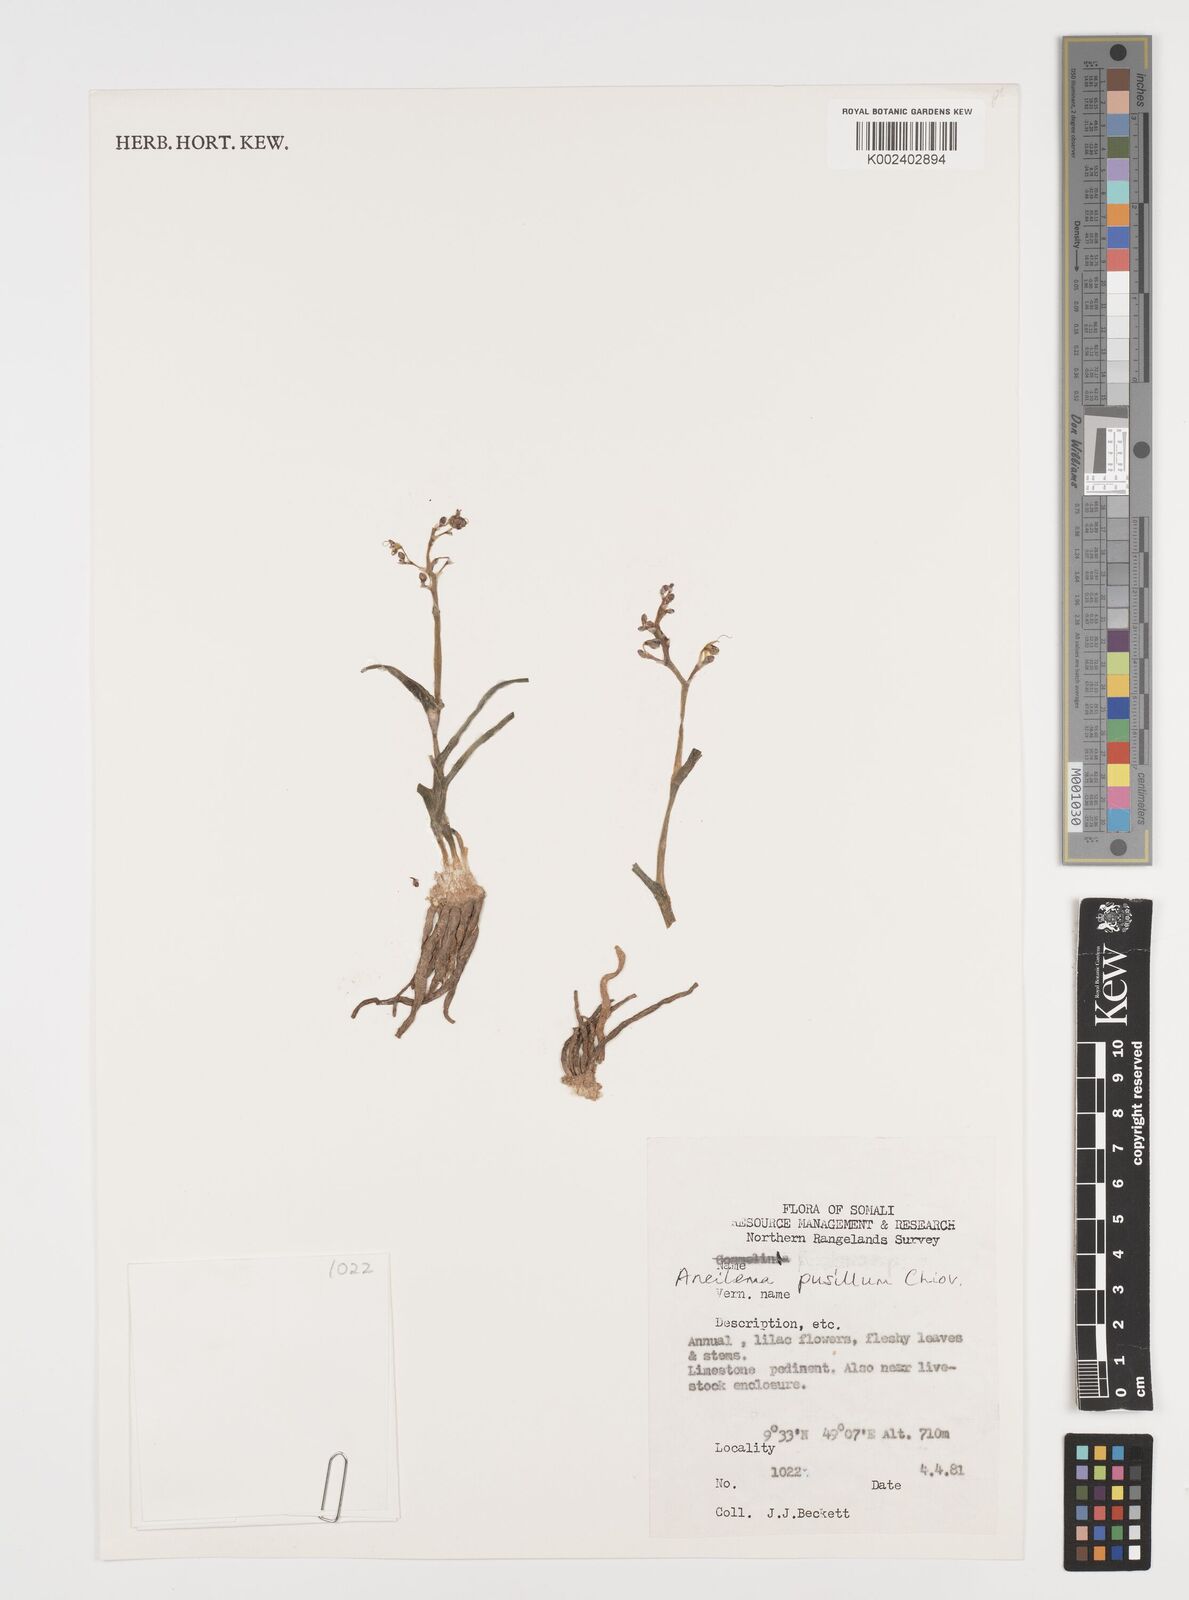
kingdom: Plantae
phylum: Tracheophyta
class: Liliopsida
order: Commelinales
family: Commelinaceae
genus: Aneilema
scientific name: Aneilema pusillum
